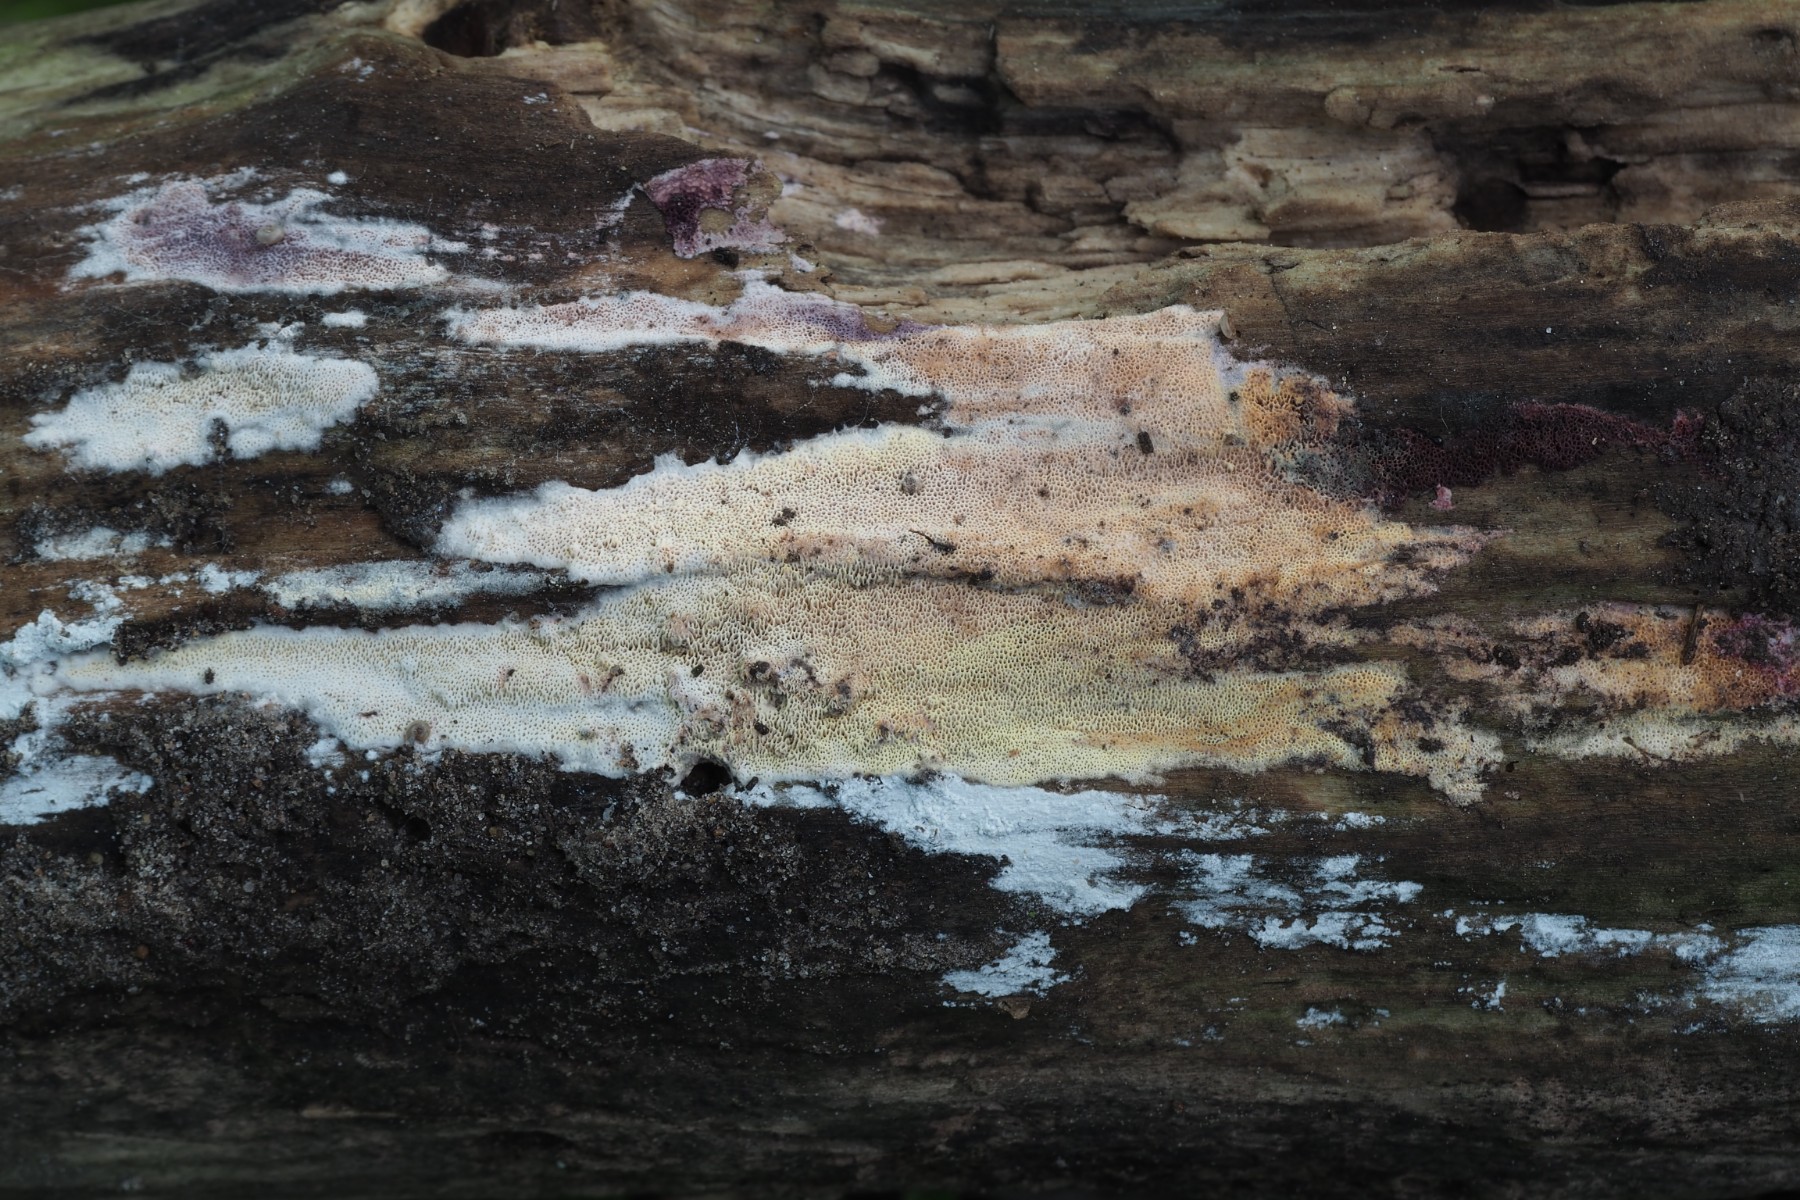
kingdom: Fungi
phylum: Basidiomycota
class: Agaricomycetes
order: Polyporales
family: Irpicaceae
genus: Ceriporia
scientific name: Ceriporia purpurea
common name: purpur-voksporesvamp
